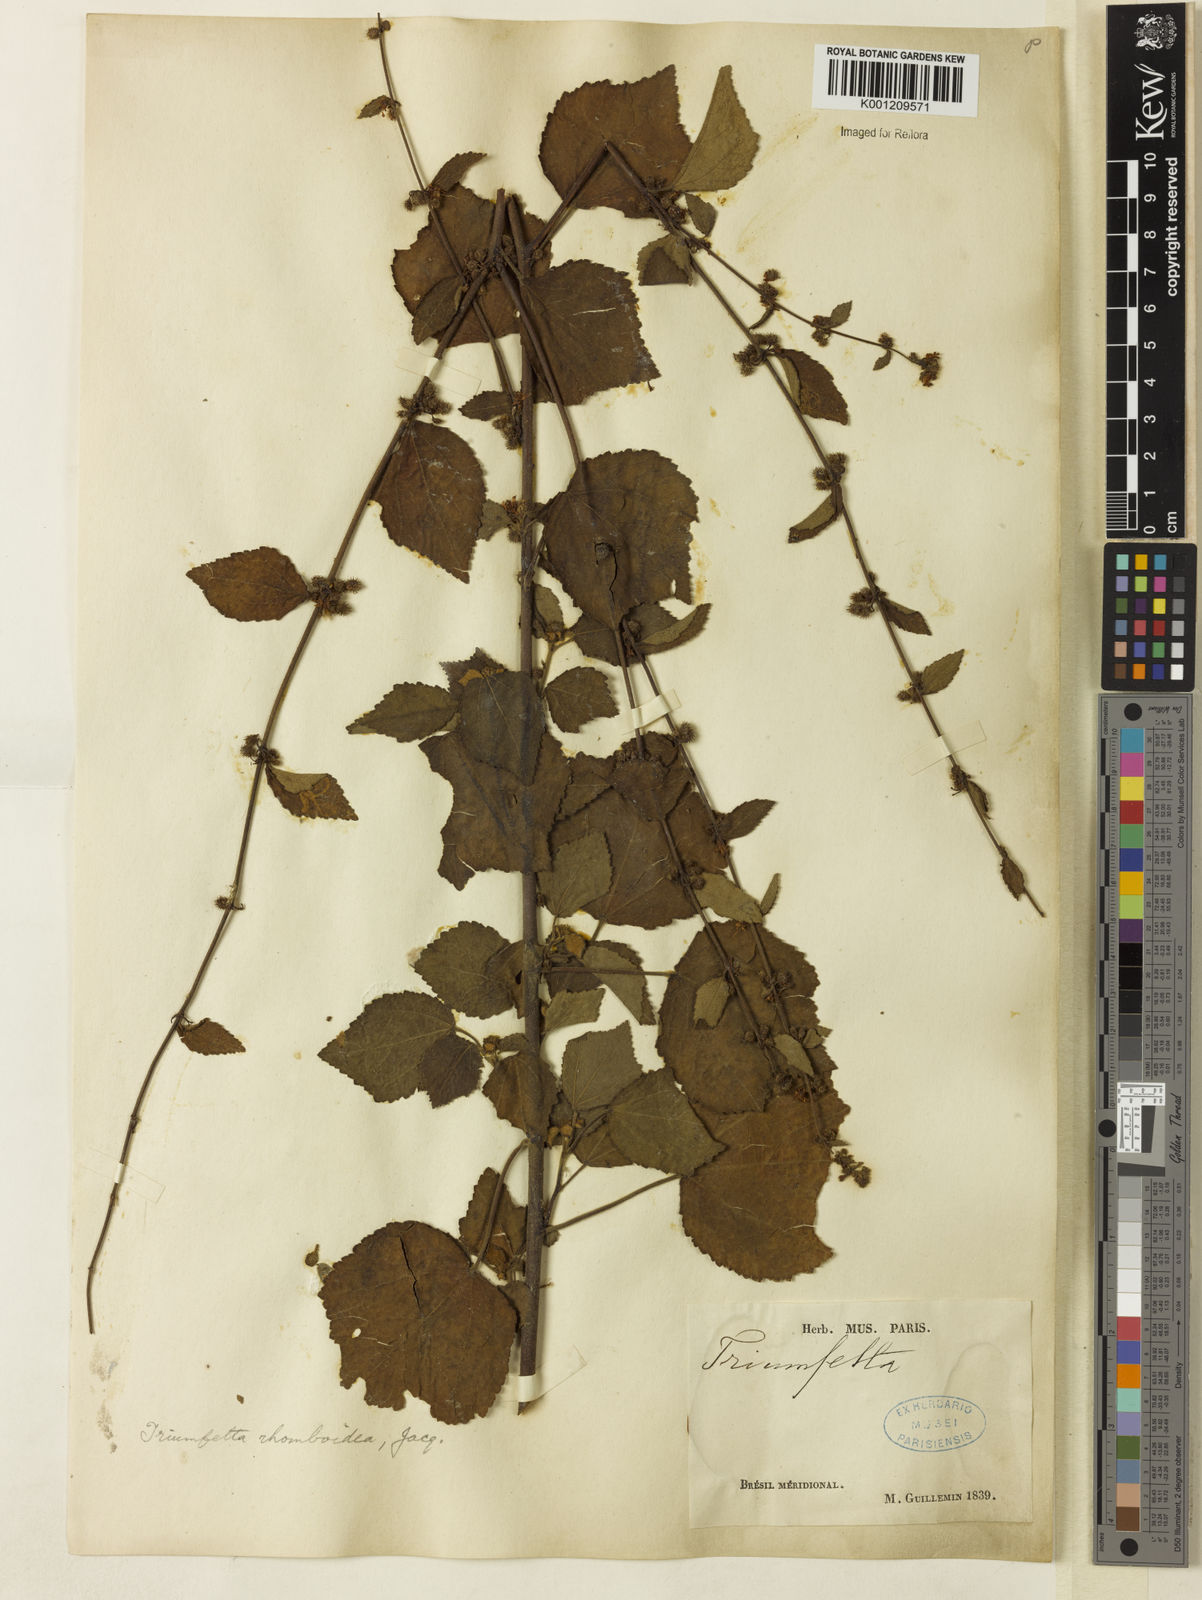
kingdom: Plantae
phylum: Tracheophyta
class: Magnoliopsida
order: Malvales
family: Malvaceae
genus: Triumfetta
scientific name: Triumfetta rhomboidea
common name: Diamond burbark
